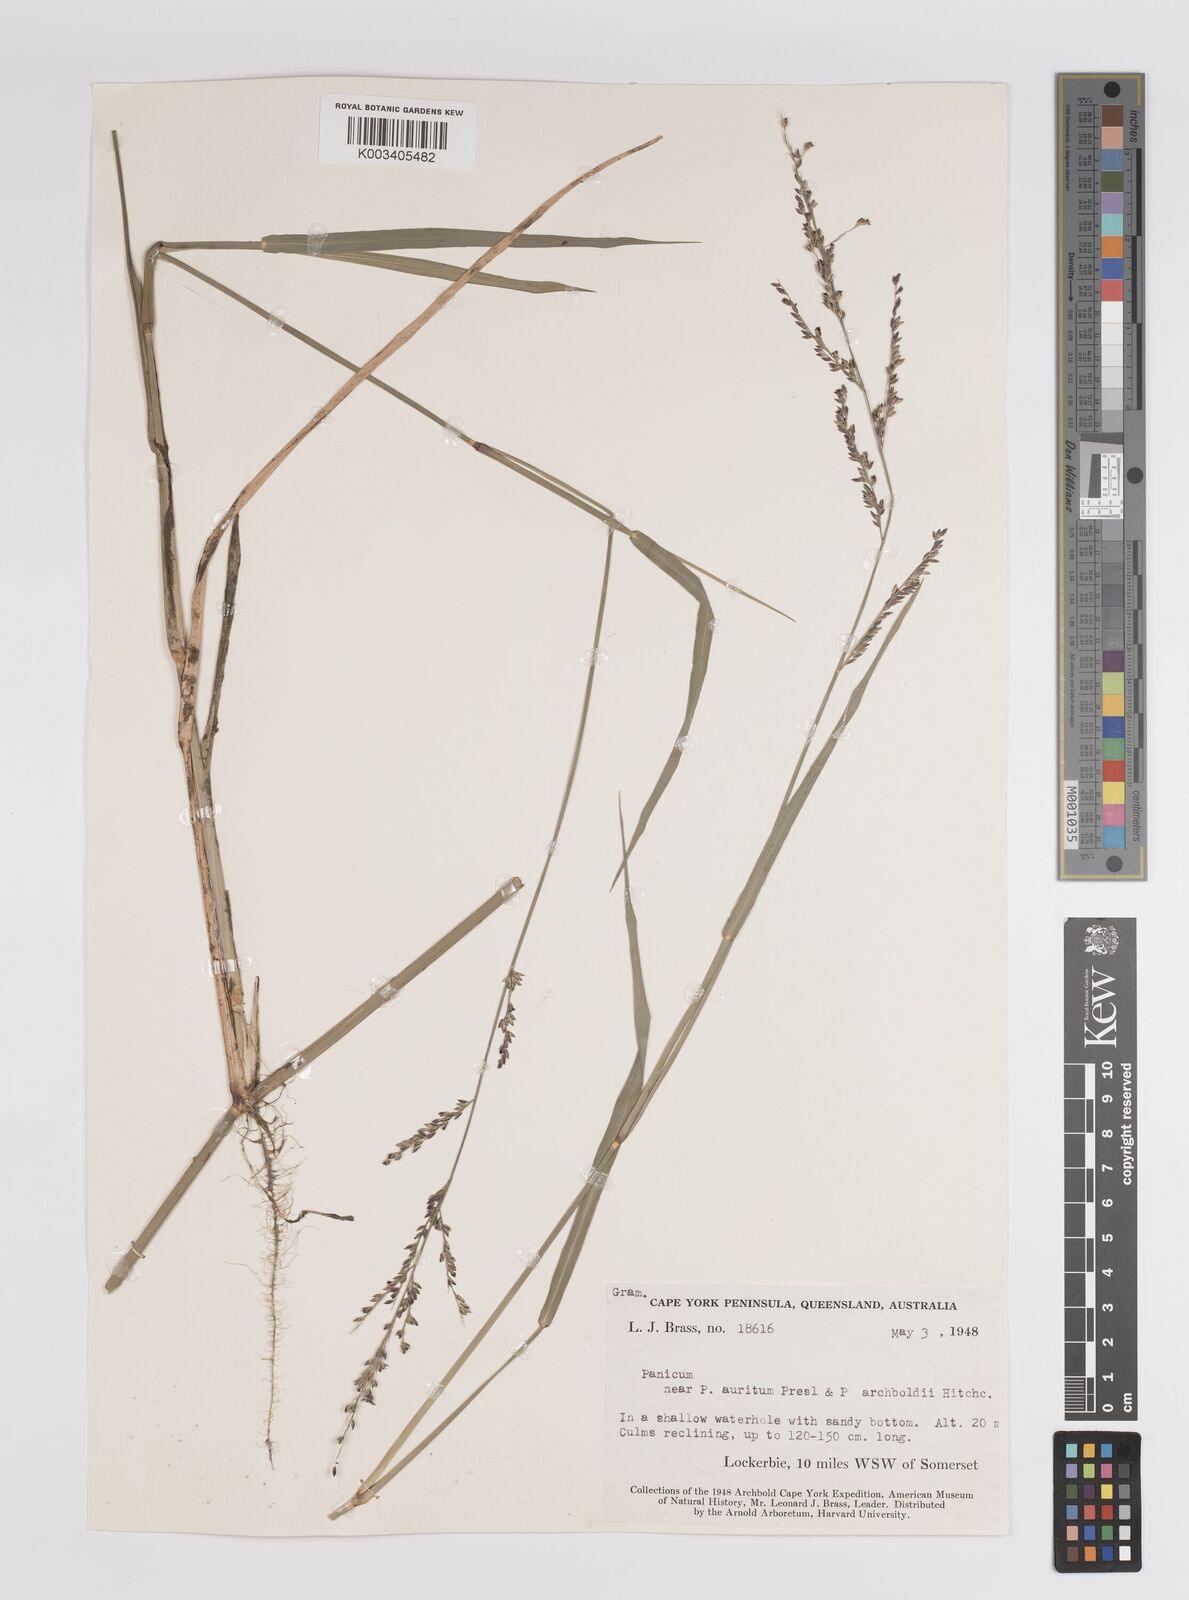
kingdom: Plantae
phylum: Tracheophyta
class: Liliopsida
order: Poales
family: Poaceae
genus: Panicum
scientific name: Panicum
